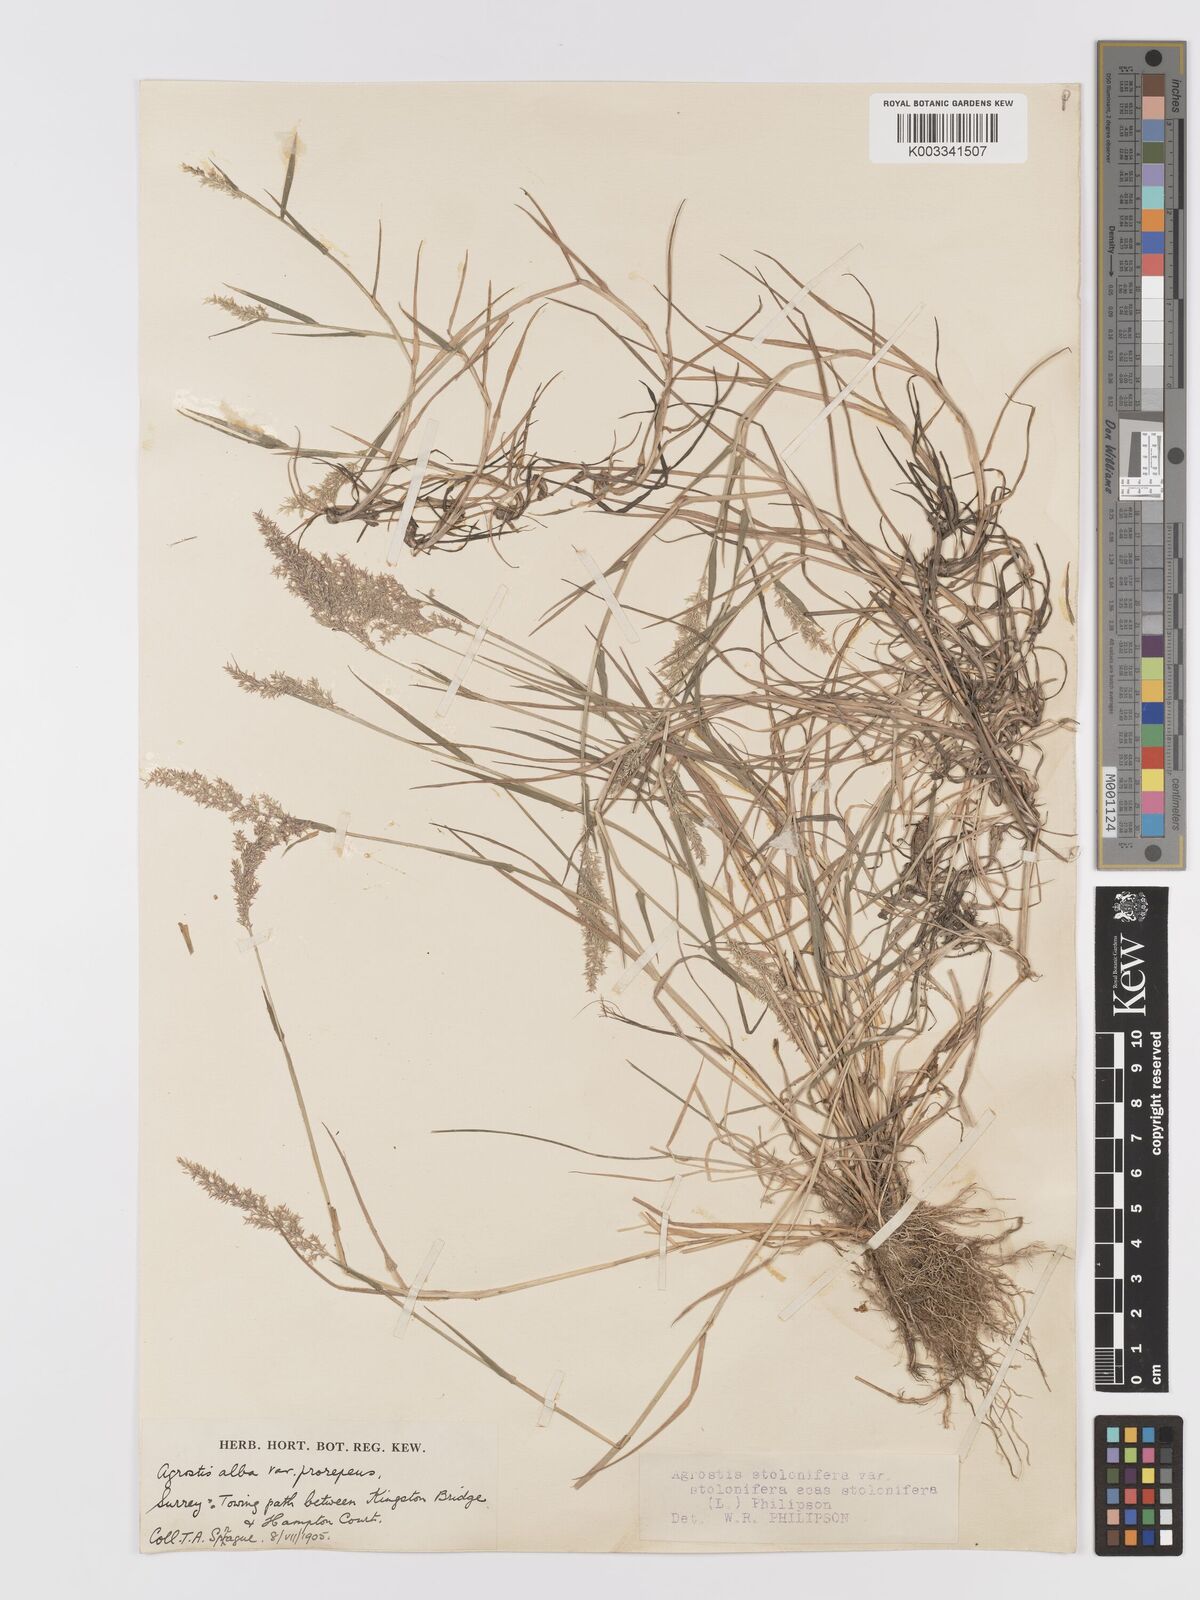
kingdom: Plantae
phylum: Tracheophyta
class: Liliopsida
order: Poales
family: Poaceae
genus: Agrostis
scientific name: Agrostis stolonifera
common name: Creeping bentgrass
